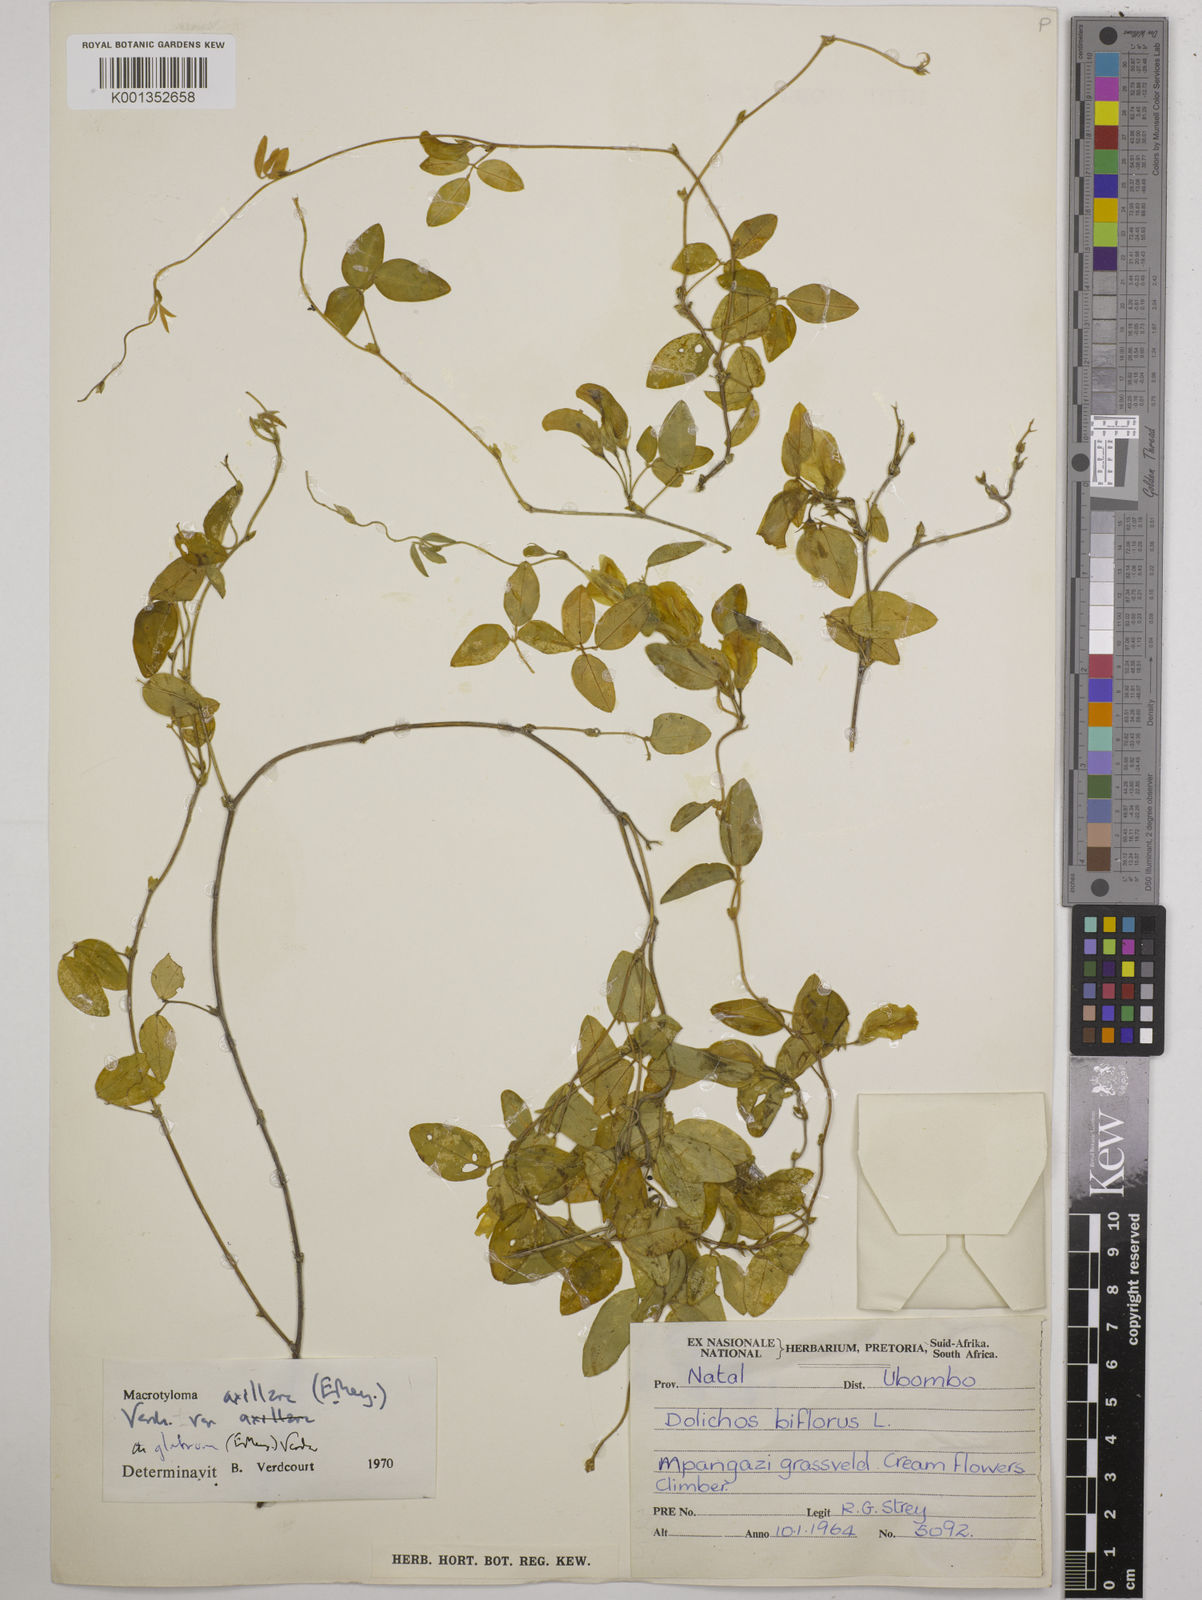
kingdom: Plantae
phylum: Tracheophyta
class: Magnoliopsida
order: Fabales
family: Fabaceae
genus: Macrotyloma
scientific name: Macrotyloma axillare
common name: Perennial horsegram
